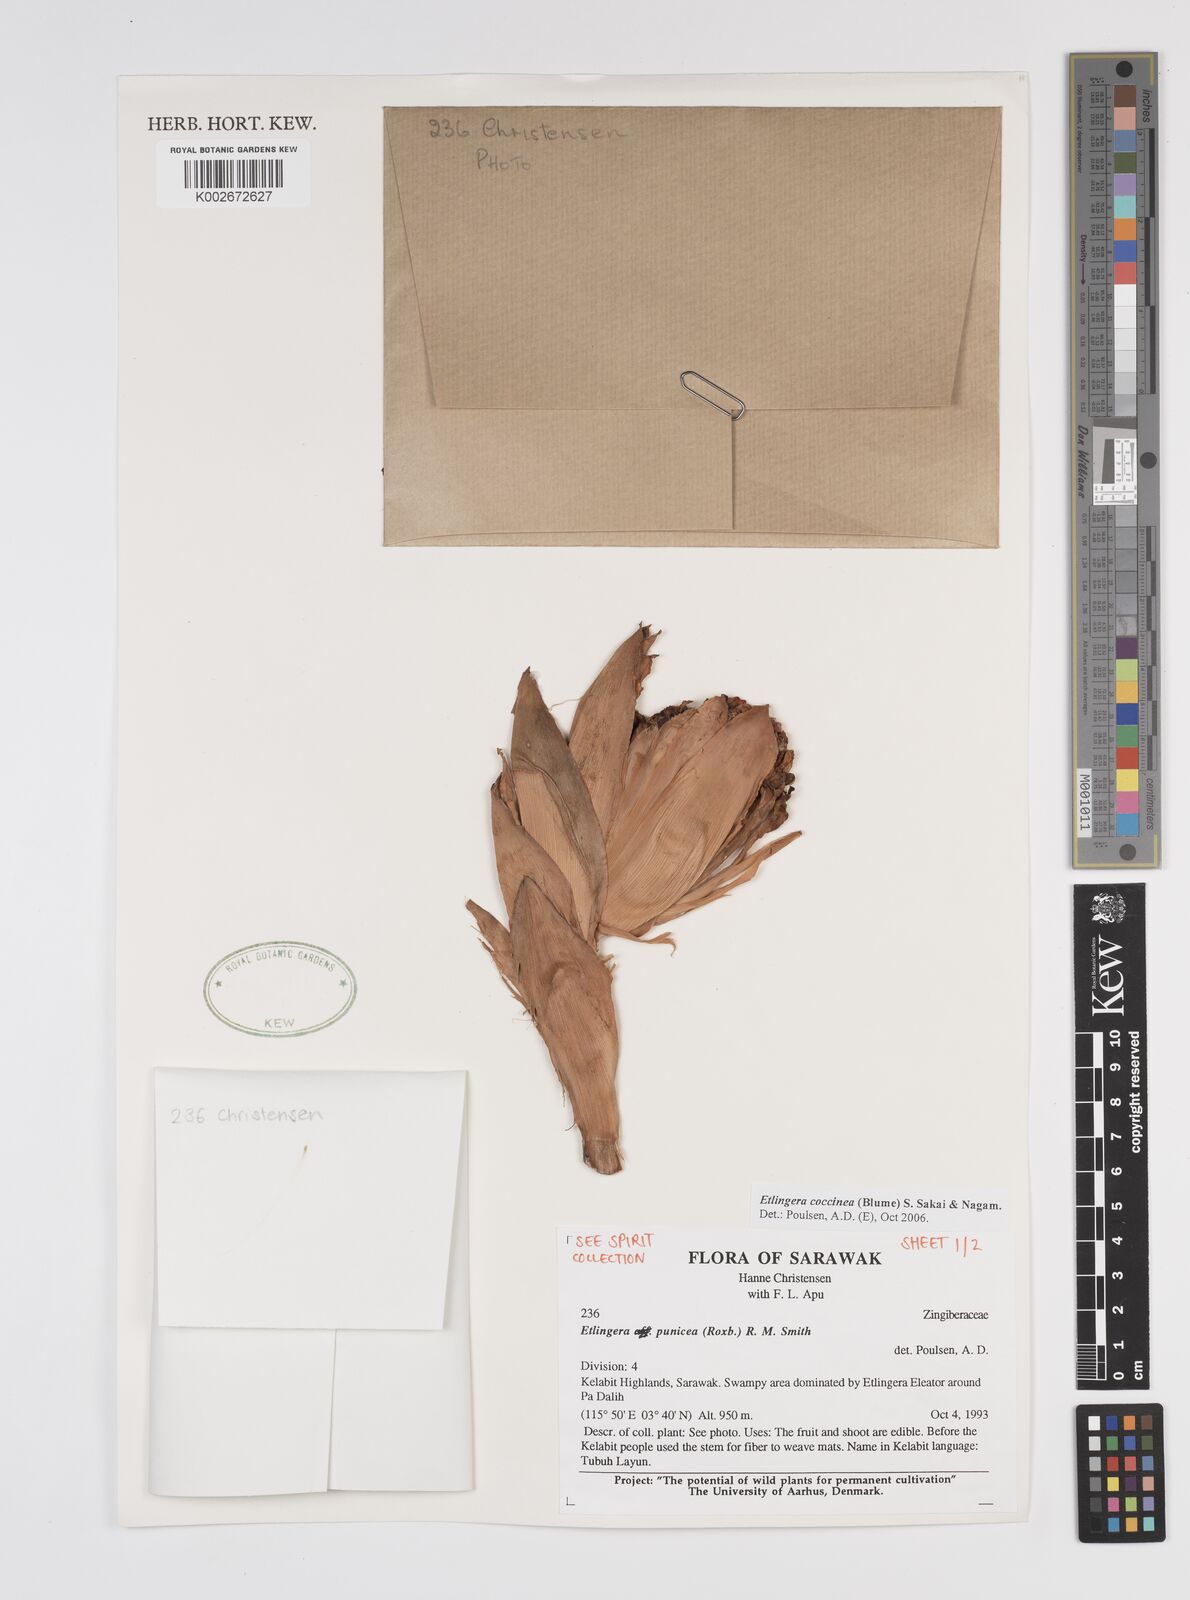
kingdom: Plantae
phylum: Tracheophyta
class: Liliopsida
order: Zingiberales
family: Zingiberaceae
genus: Etlingera
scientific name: Etlingera coccinea
